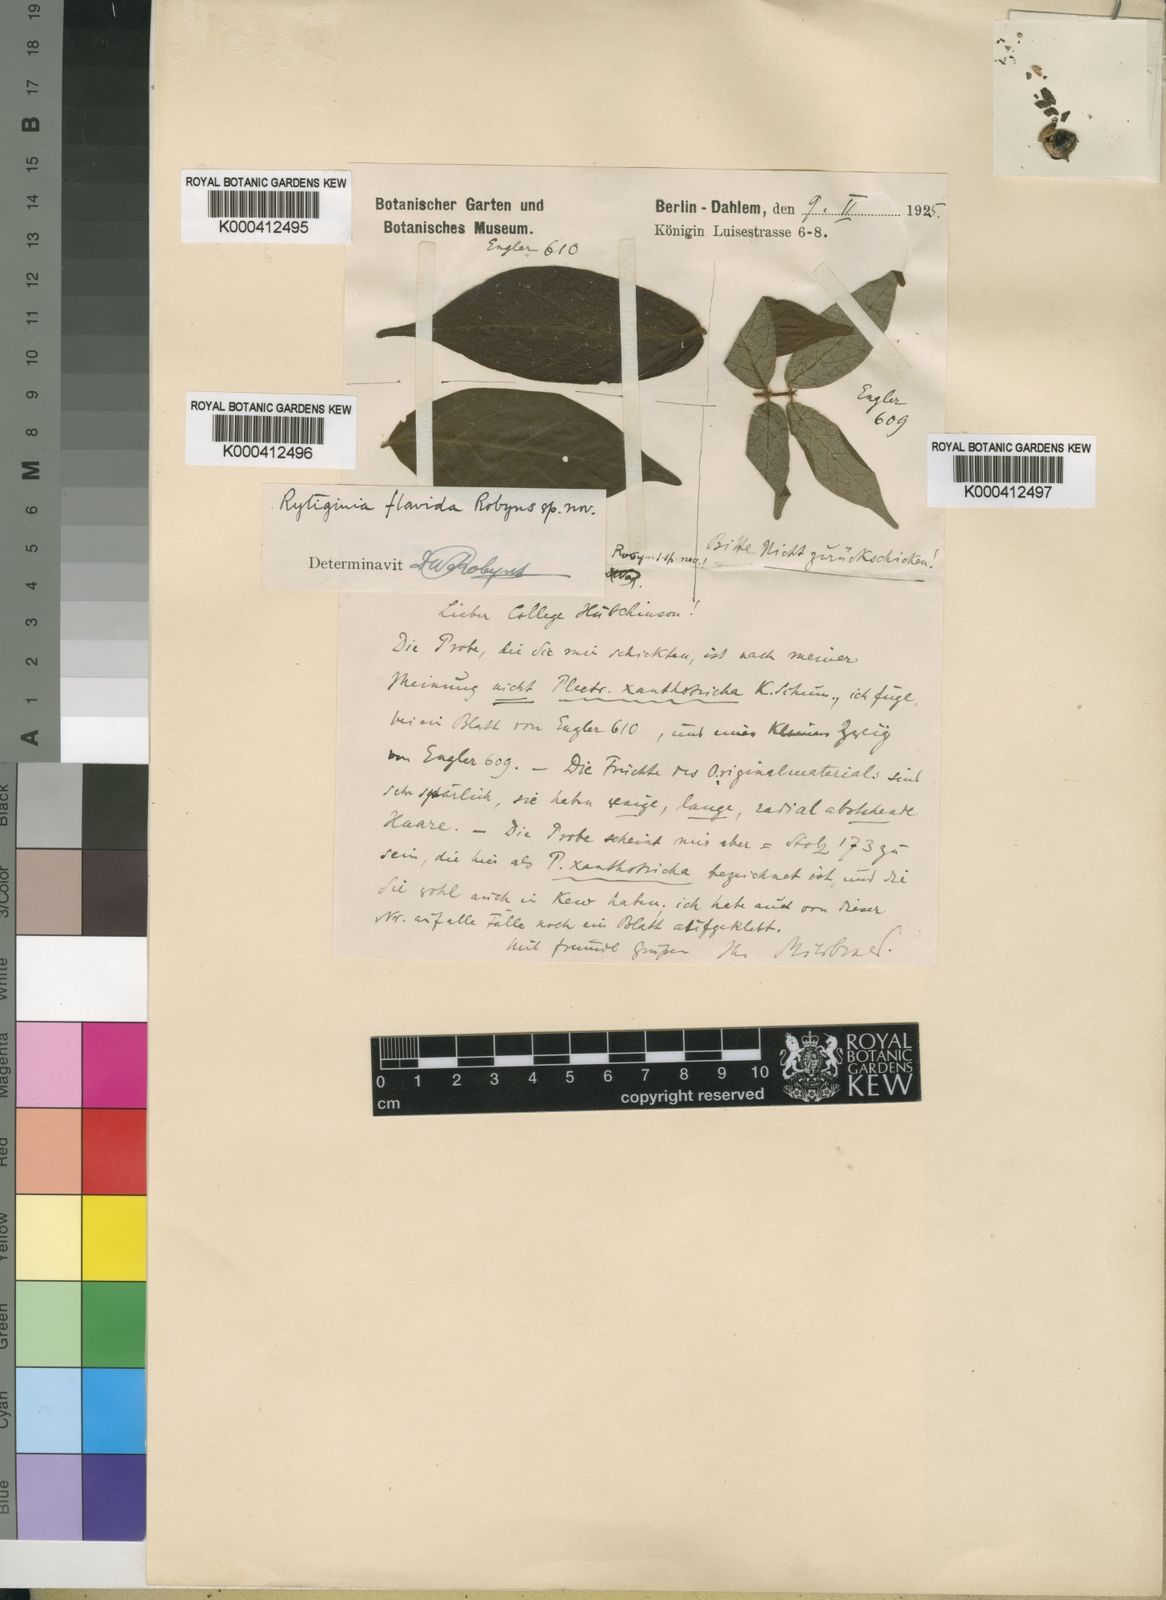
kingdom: Plantae
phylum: Tracheophyta
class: Magnoliopsida
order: Gentianales
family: Rubiaceae
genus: Rytigynia
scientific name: Rytigynia flavida
